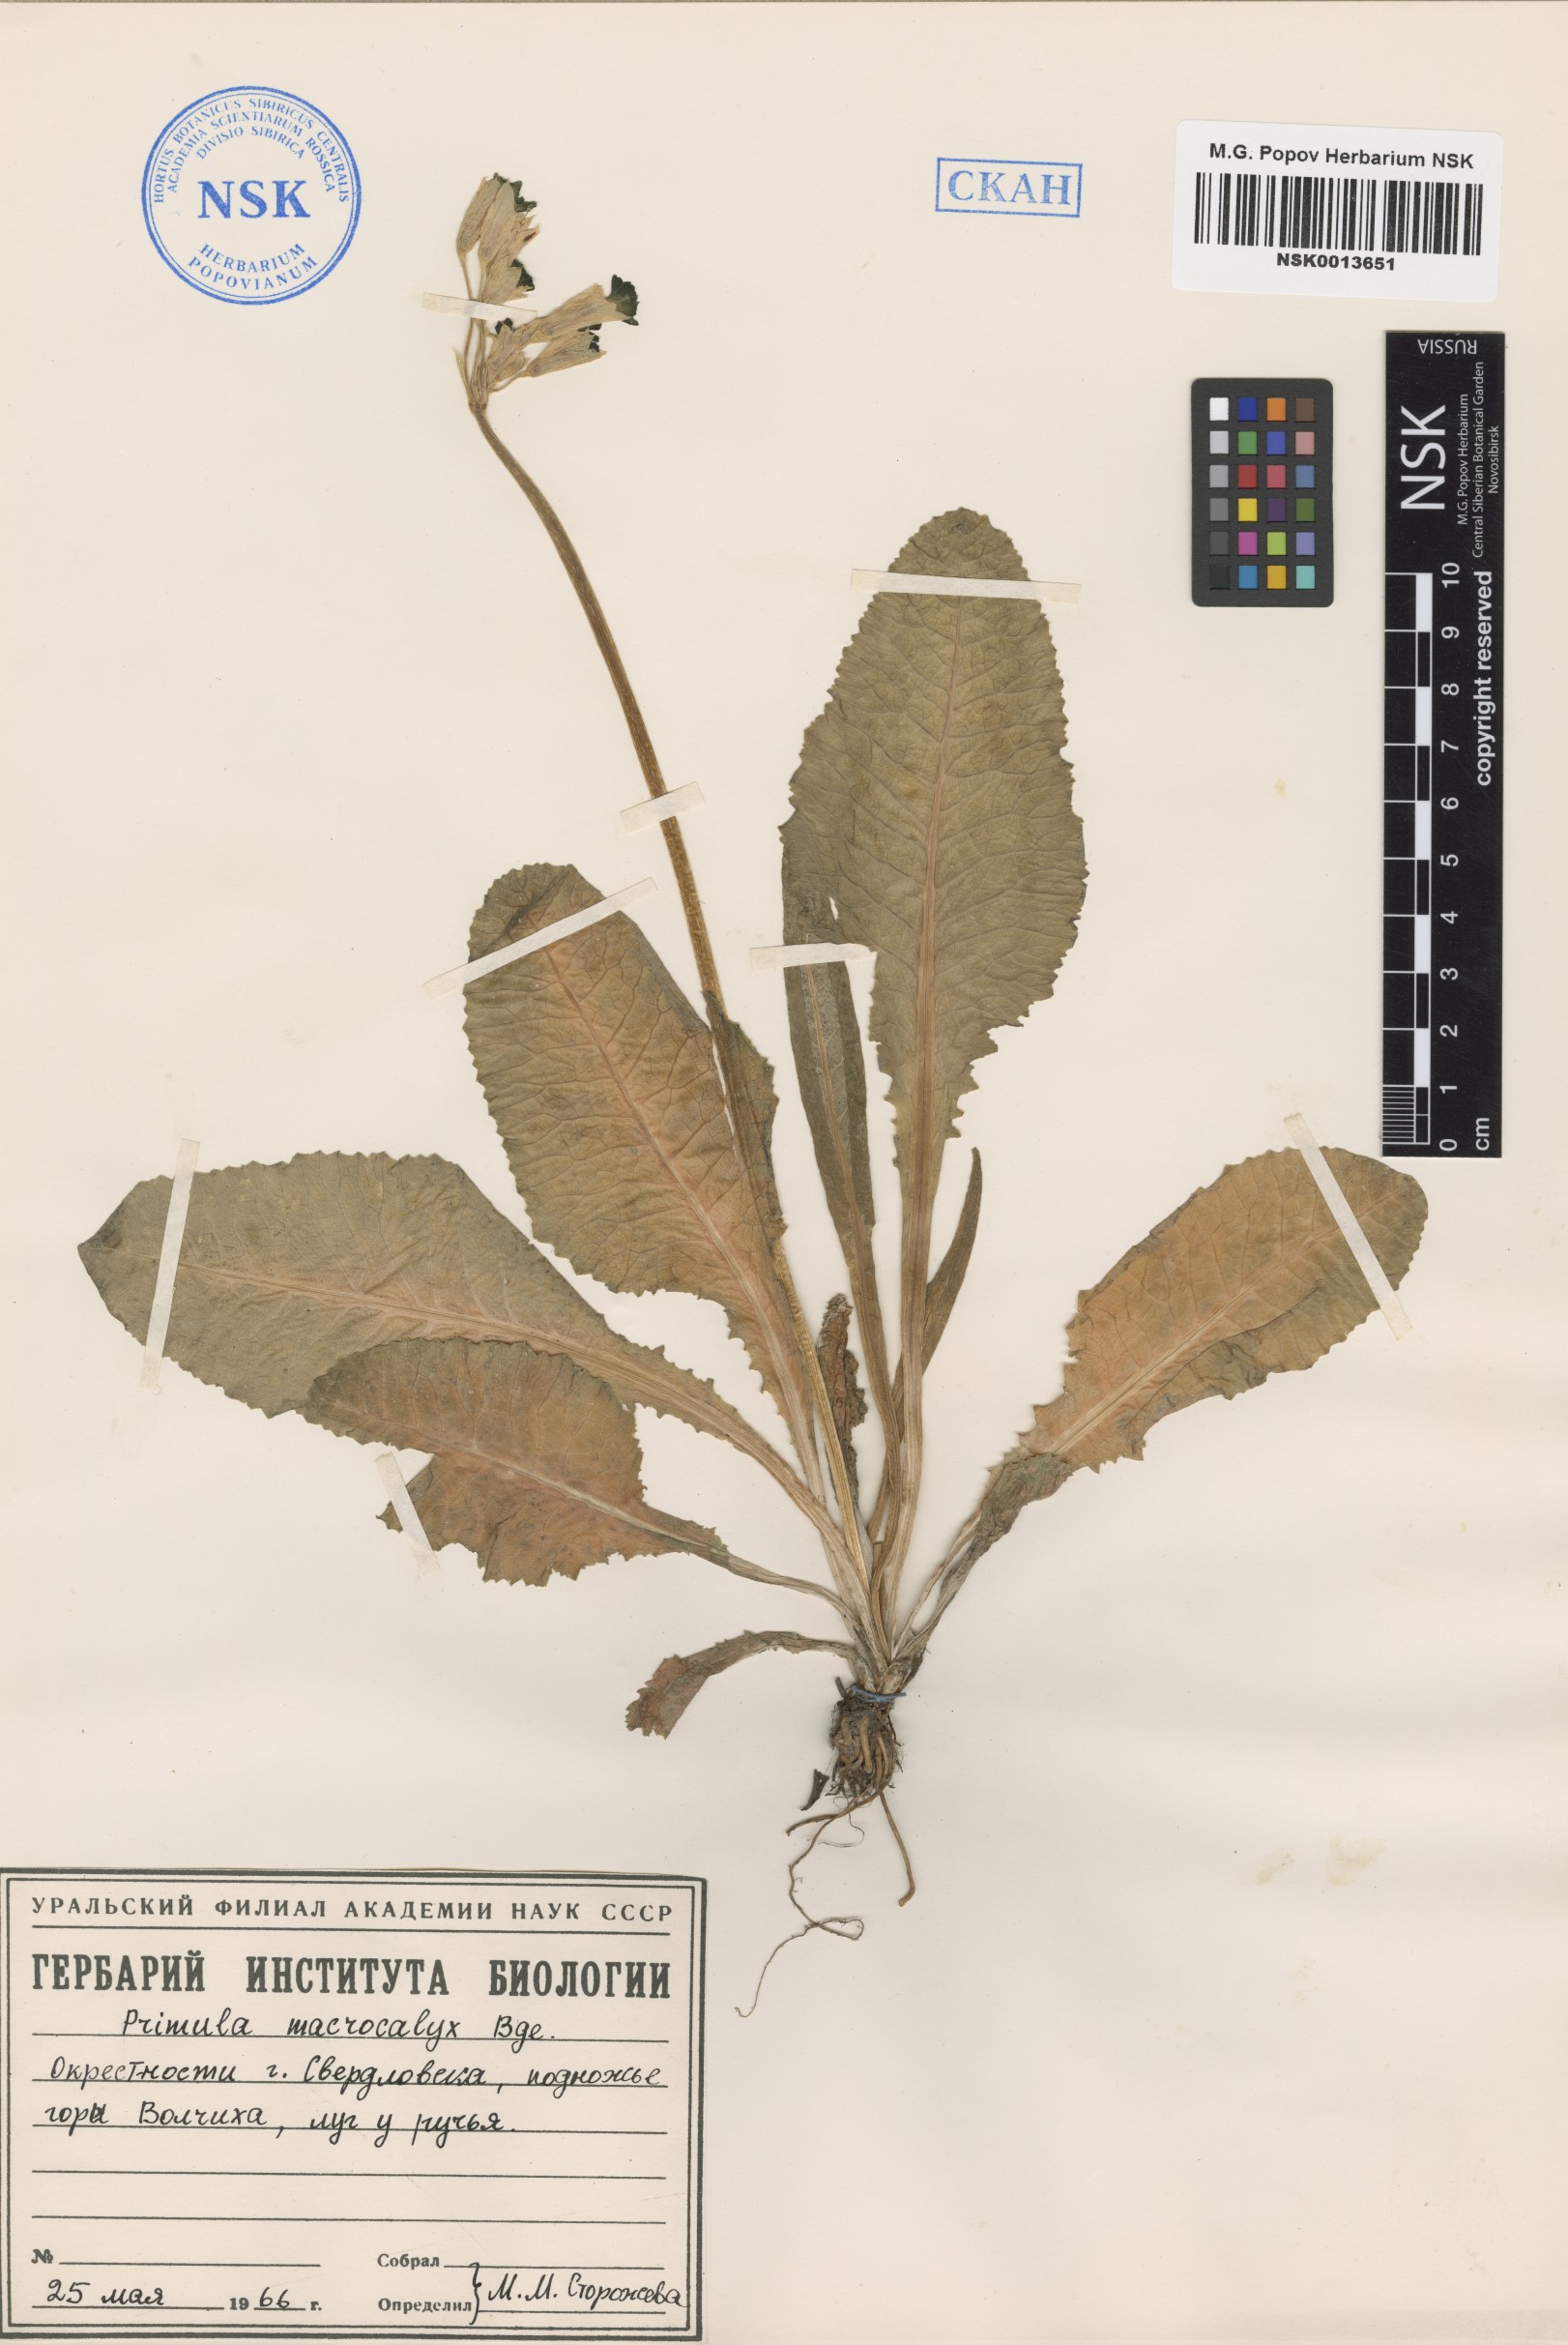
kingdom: Plantae
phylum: Tracheophyta
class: Magnoliopsida
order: Ericales
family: Primulaceae
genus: Primula
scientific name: Primula veris
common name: Cowslip
